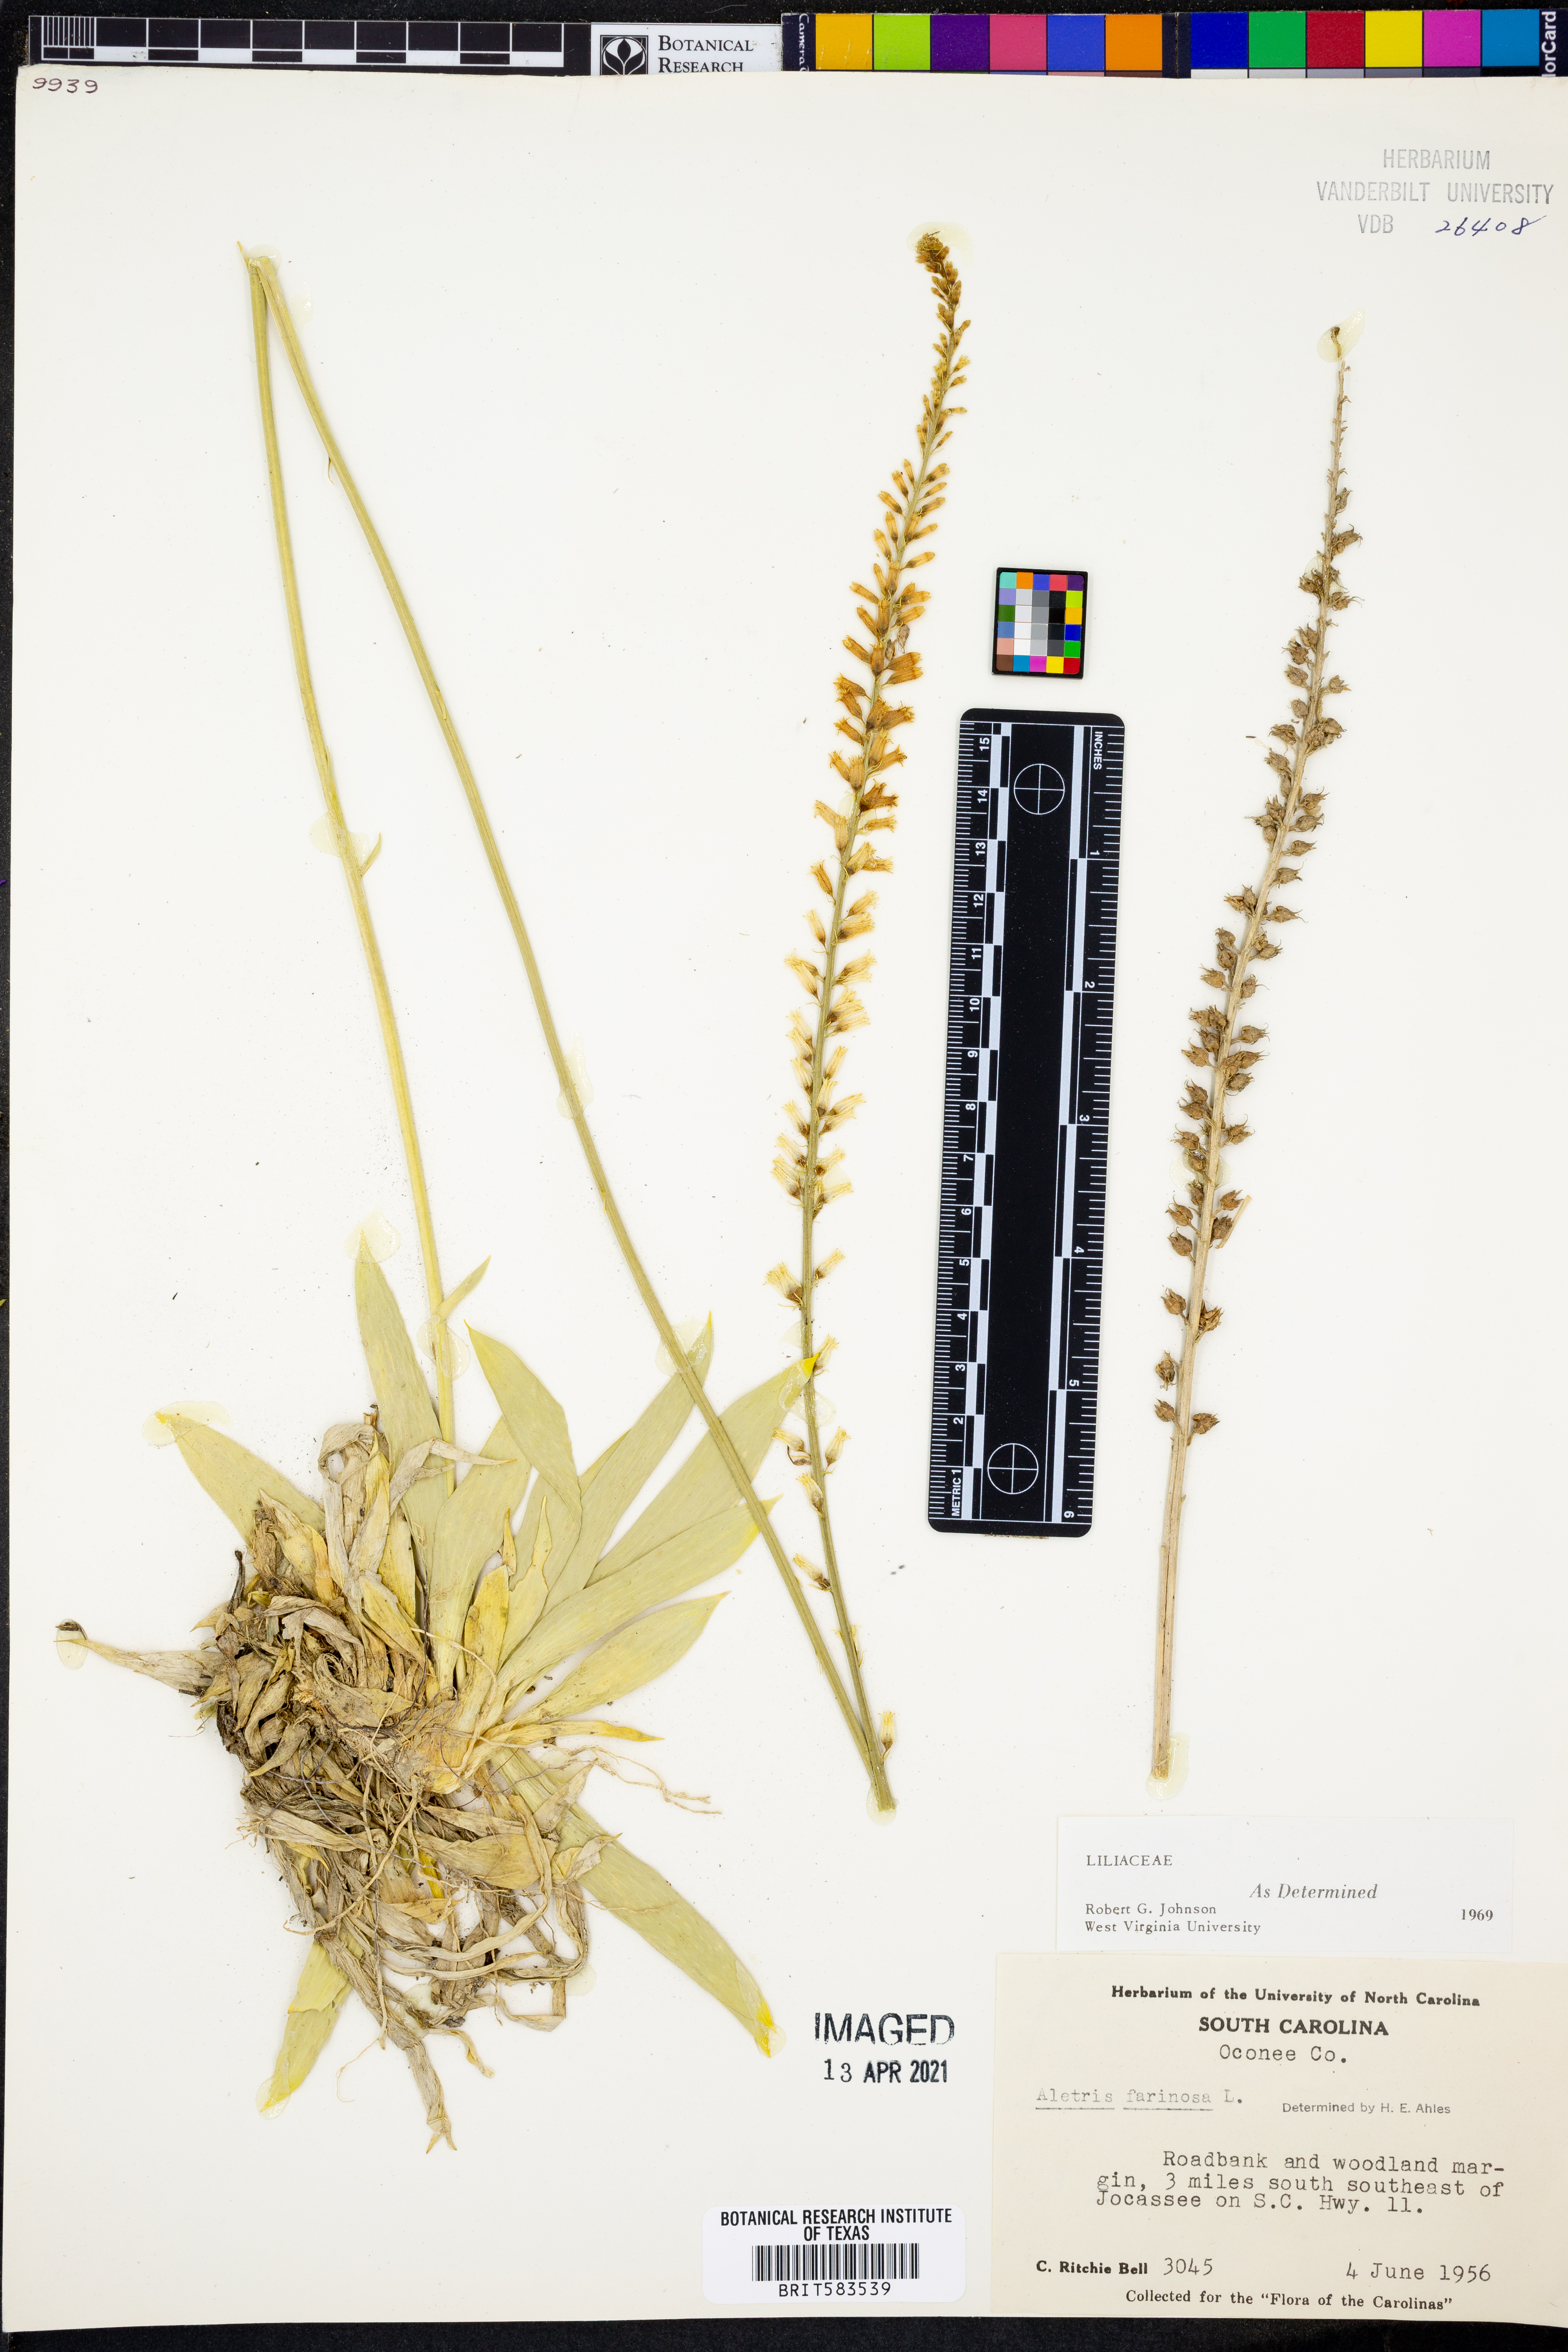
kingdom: Plantae
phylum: Tracheophyta
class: Liliopsida
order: Dioscoreales
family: Nartheciaceae
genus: Aletris
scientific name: Aletris farinosa
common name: Colicroot
